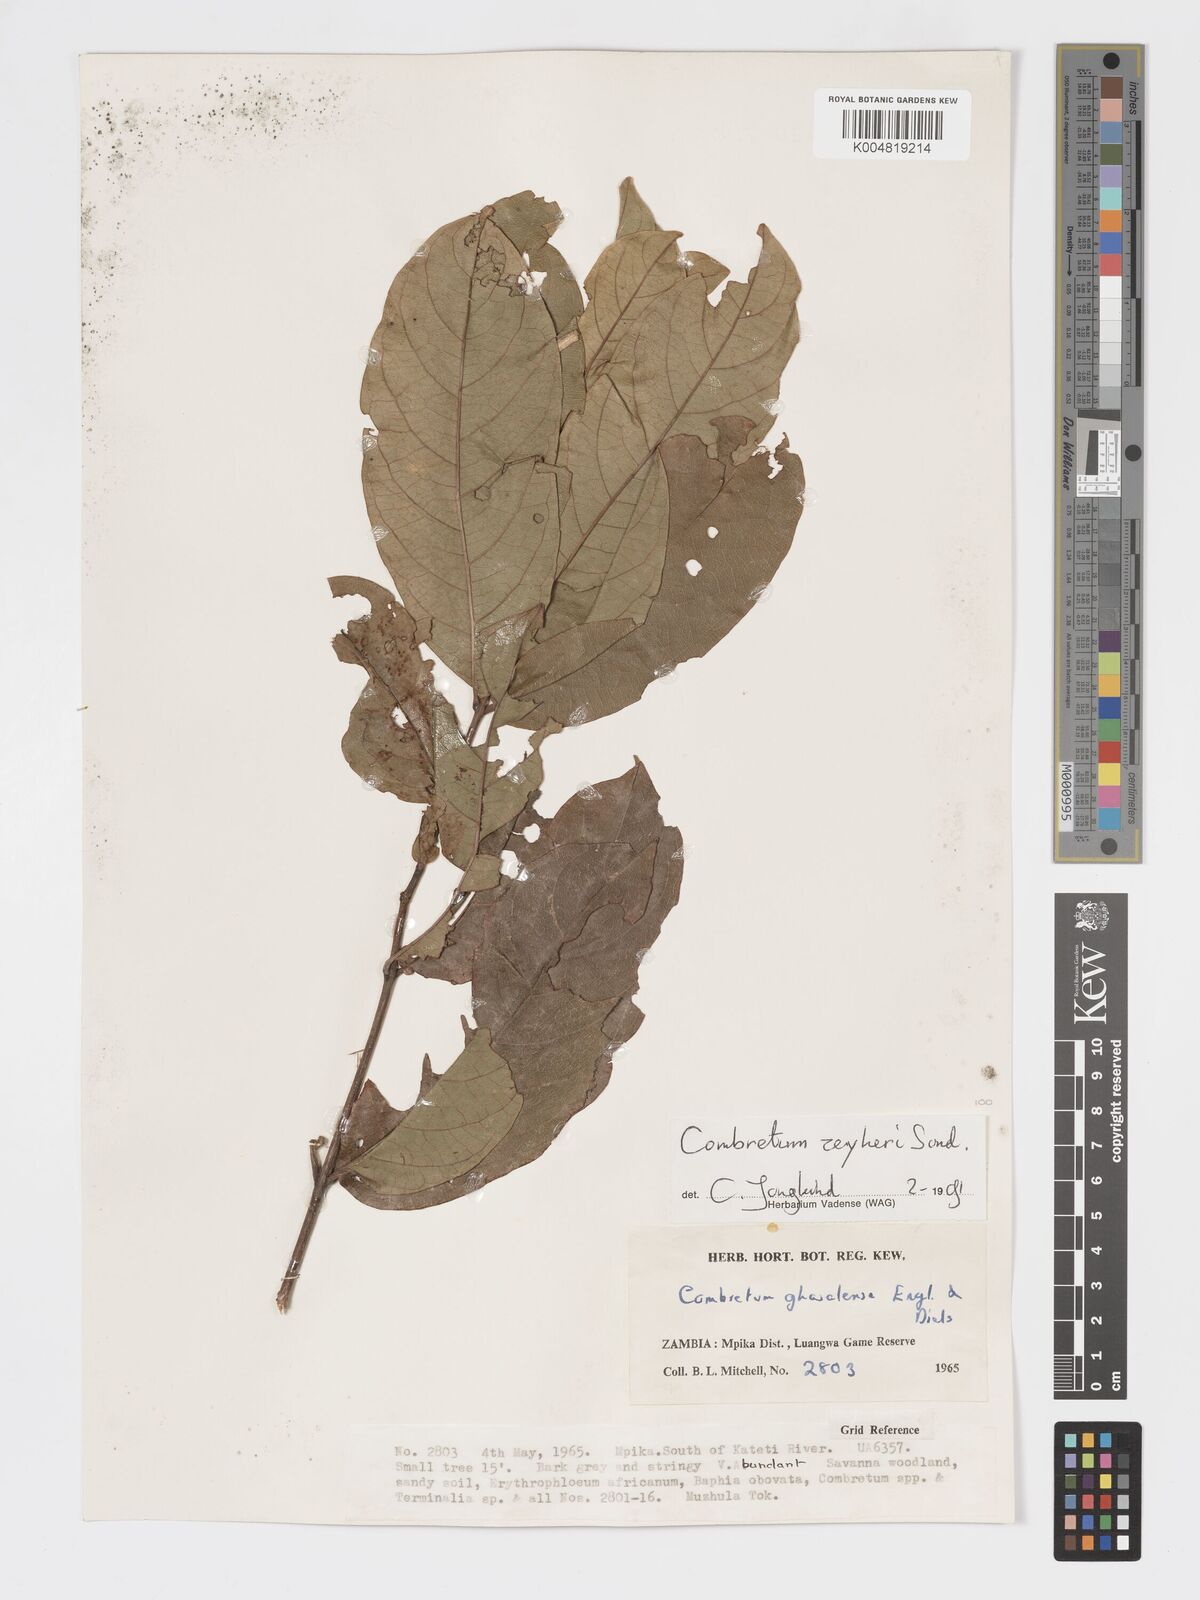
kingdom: Plantae
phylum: Tracheophyta
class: Magnoliopsida
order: Myrtales
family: Combretaceae
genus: Combretum
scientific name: Combretum zeyheri
